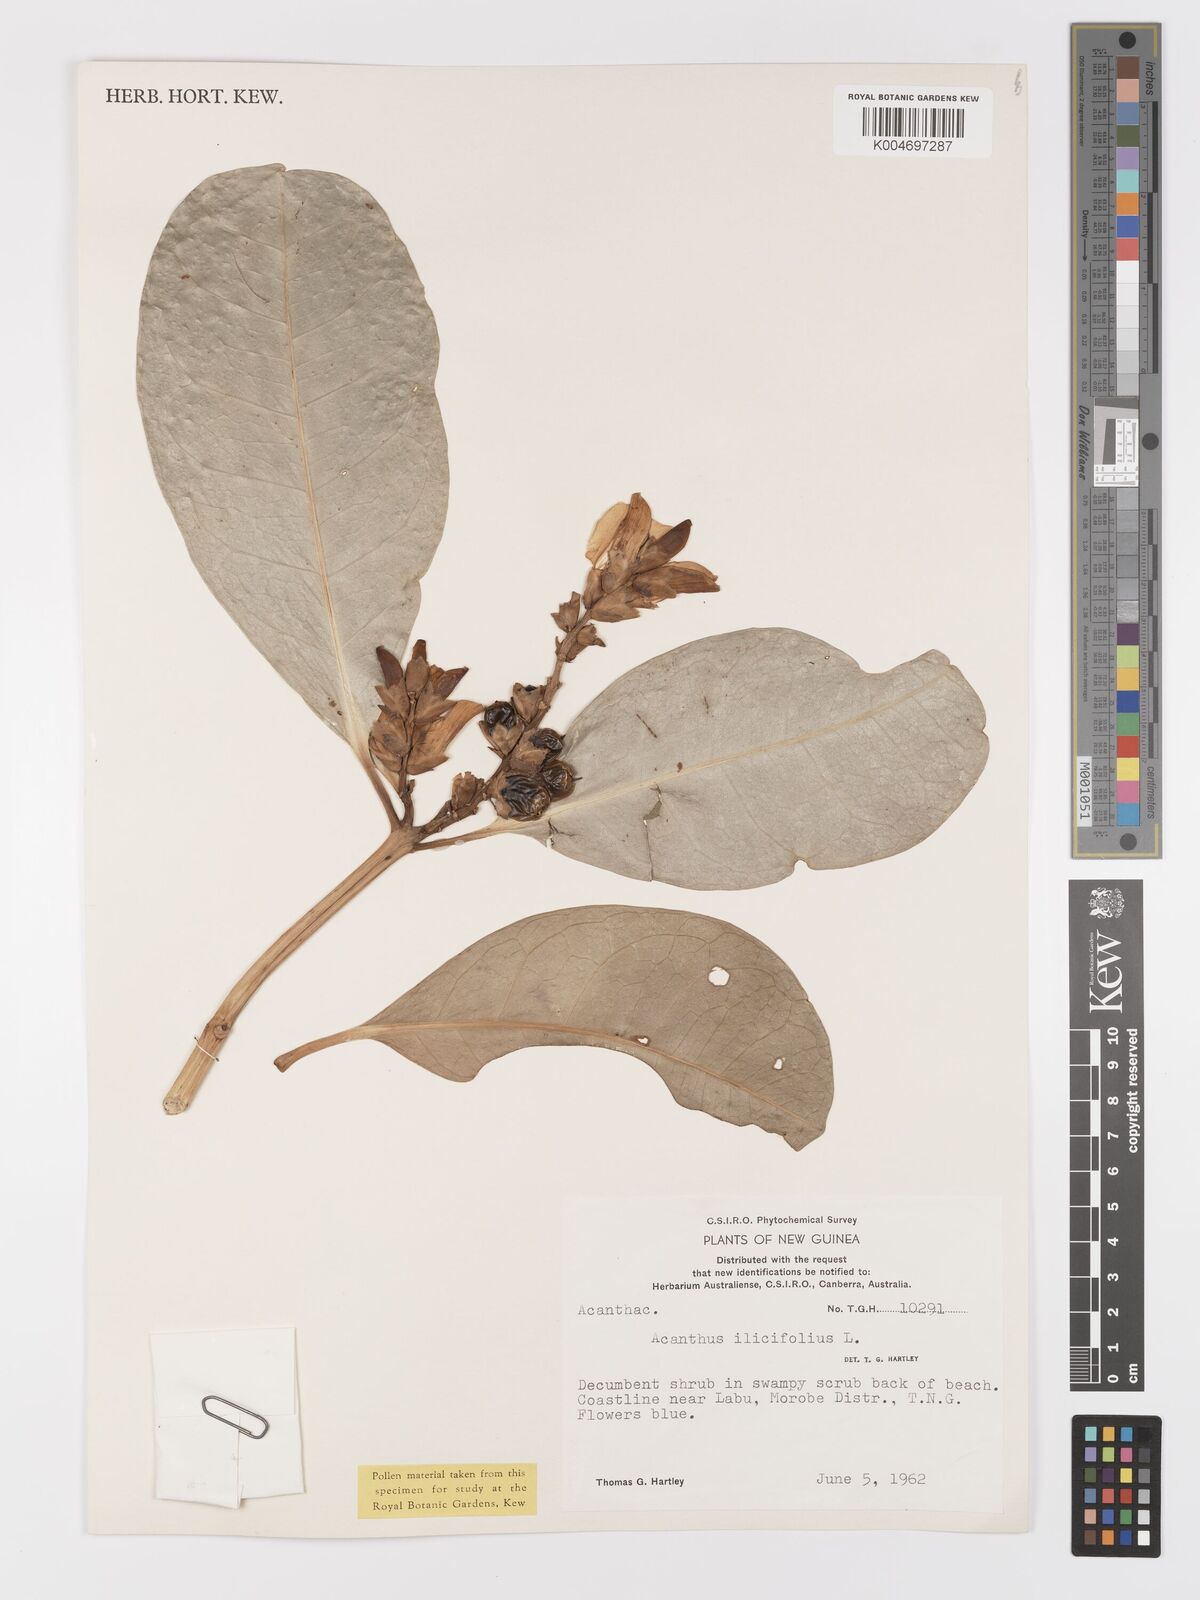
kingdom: Plantae
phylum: Tracheophyta
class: Magnoliopsida
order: Lamiales
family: Acanthaceae
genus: Acanthus
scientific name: Acanthus ilicifolius
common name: Holy mangrove
